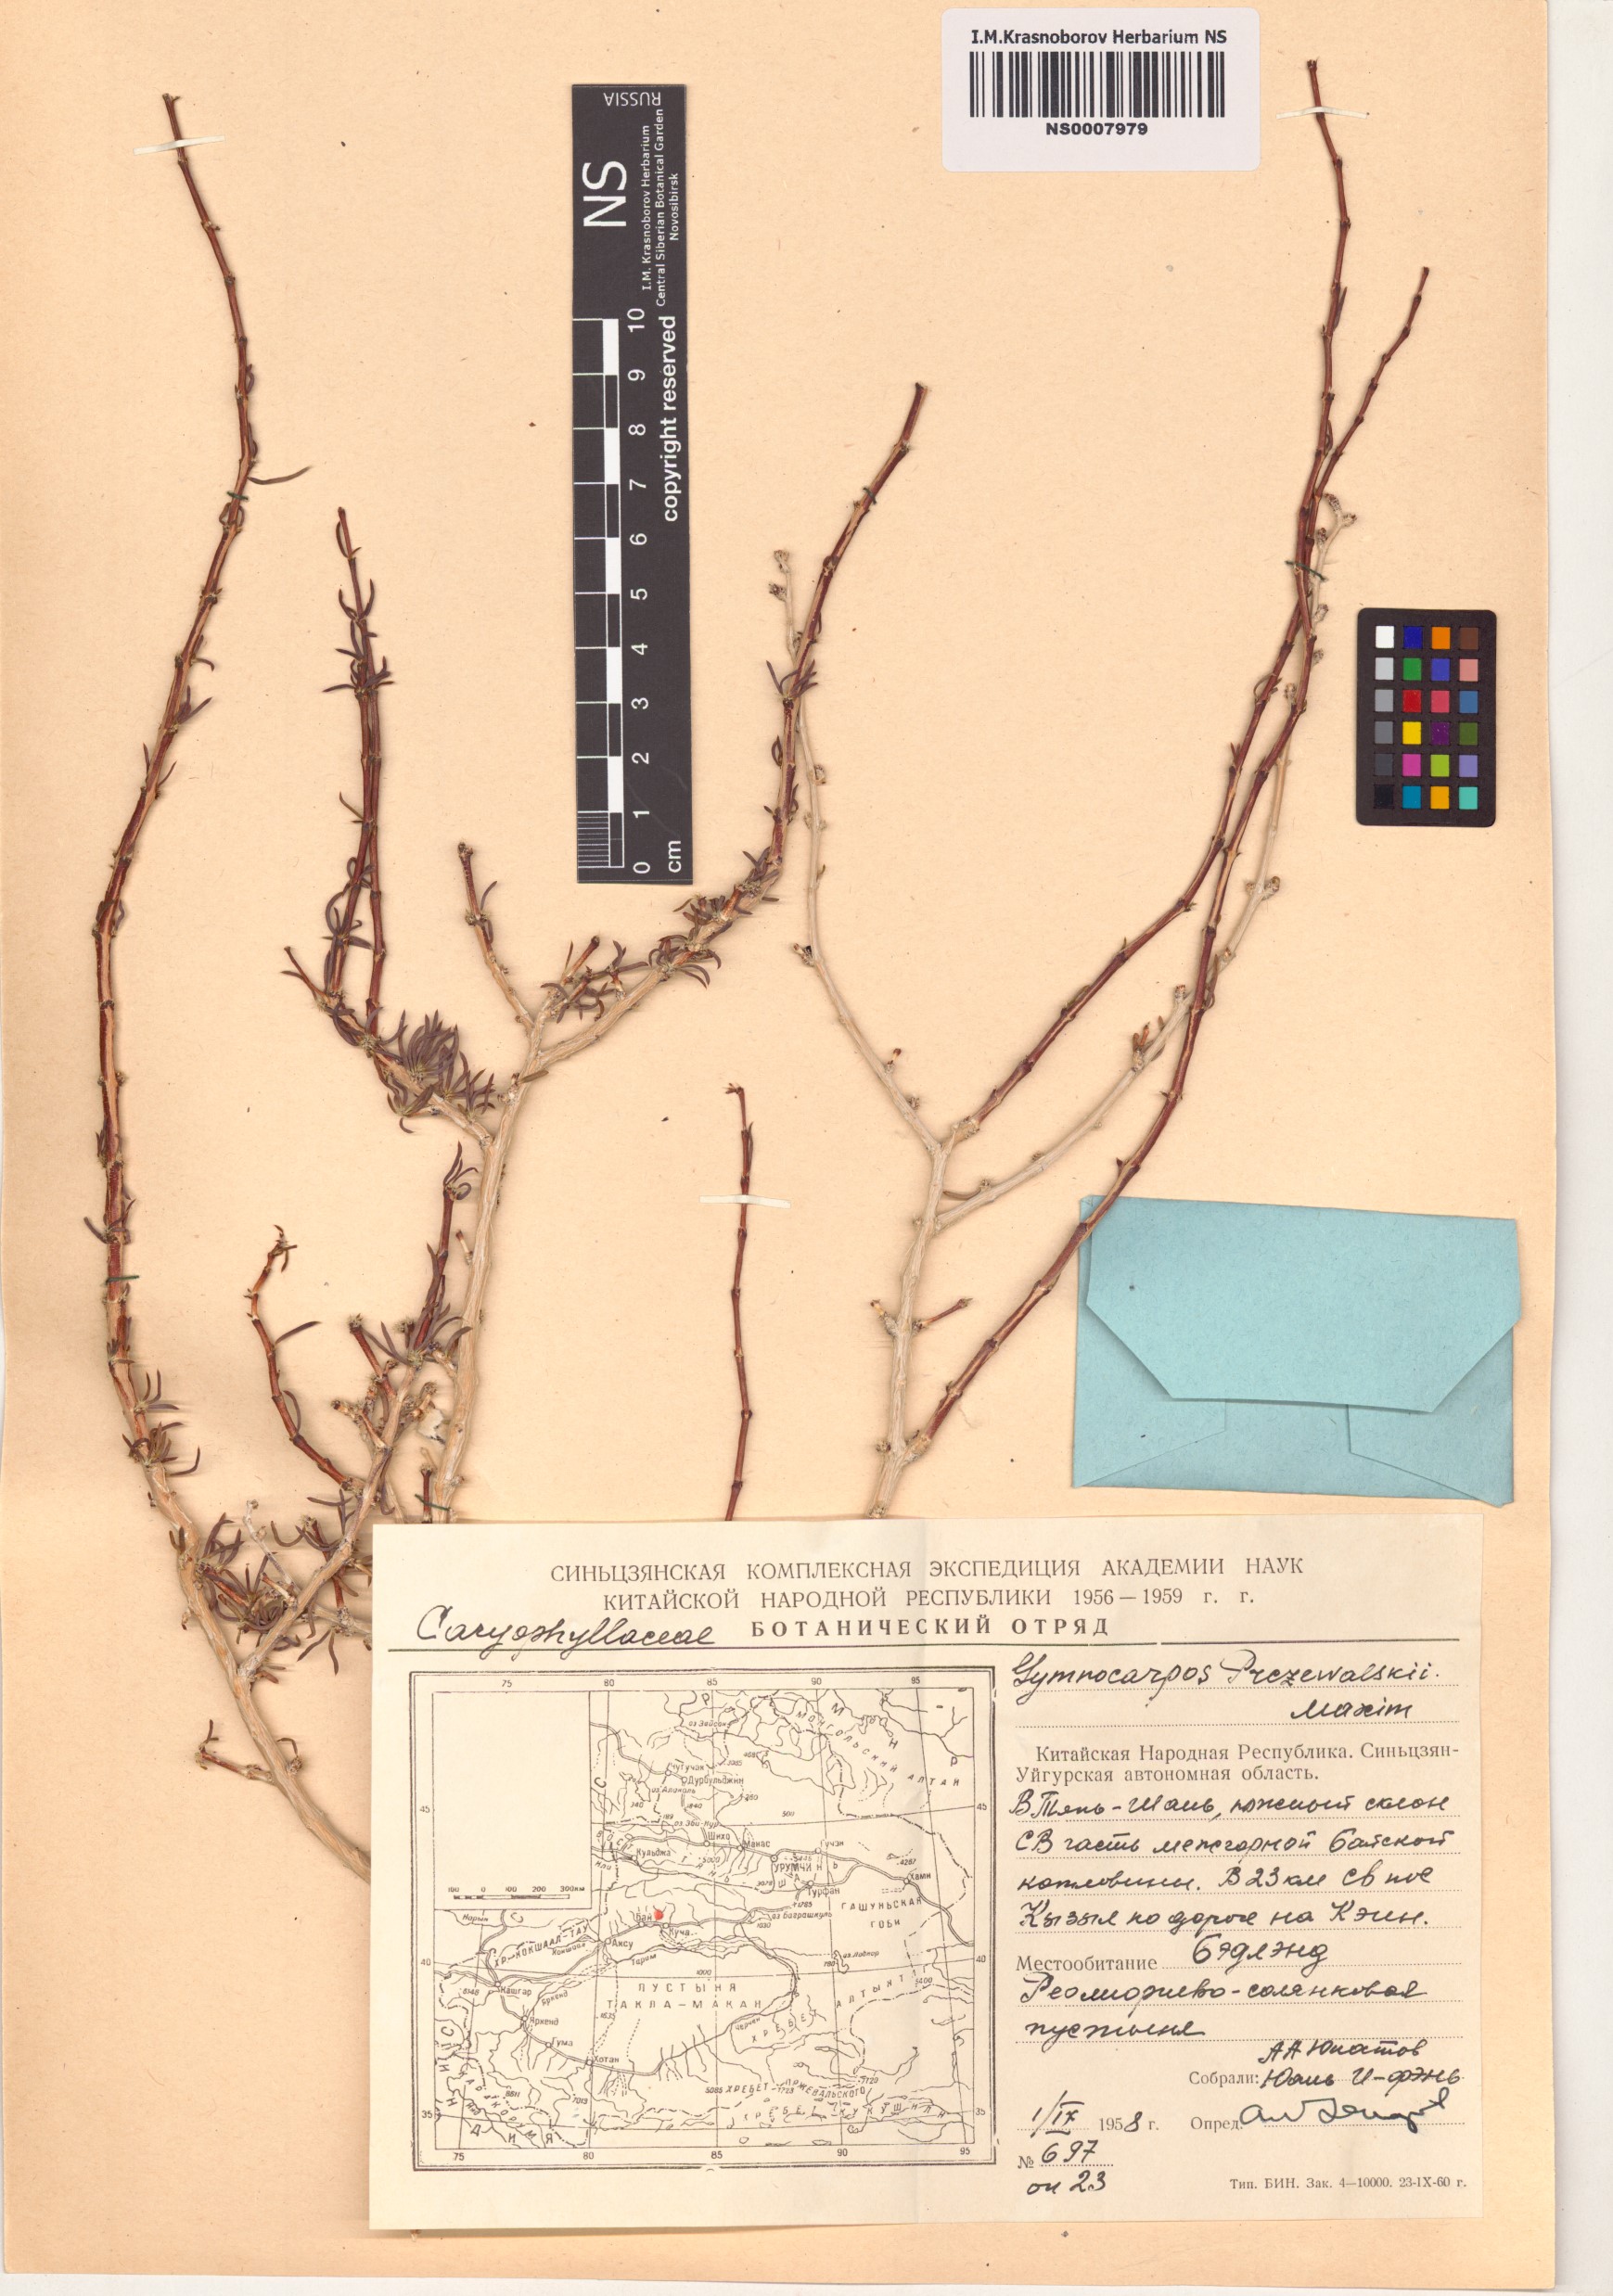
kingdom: Plantae
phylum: Tracheophyta
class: Magnoliopsida
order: Caryophyllales
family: Caryophyllaceae
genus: Gymnocarpos
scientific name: Gymnocarpos przewalskii
